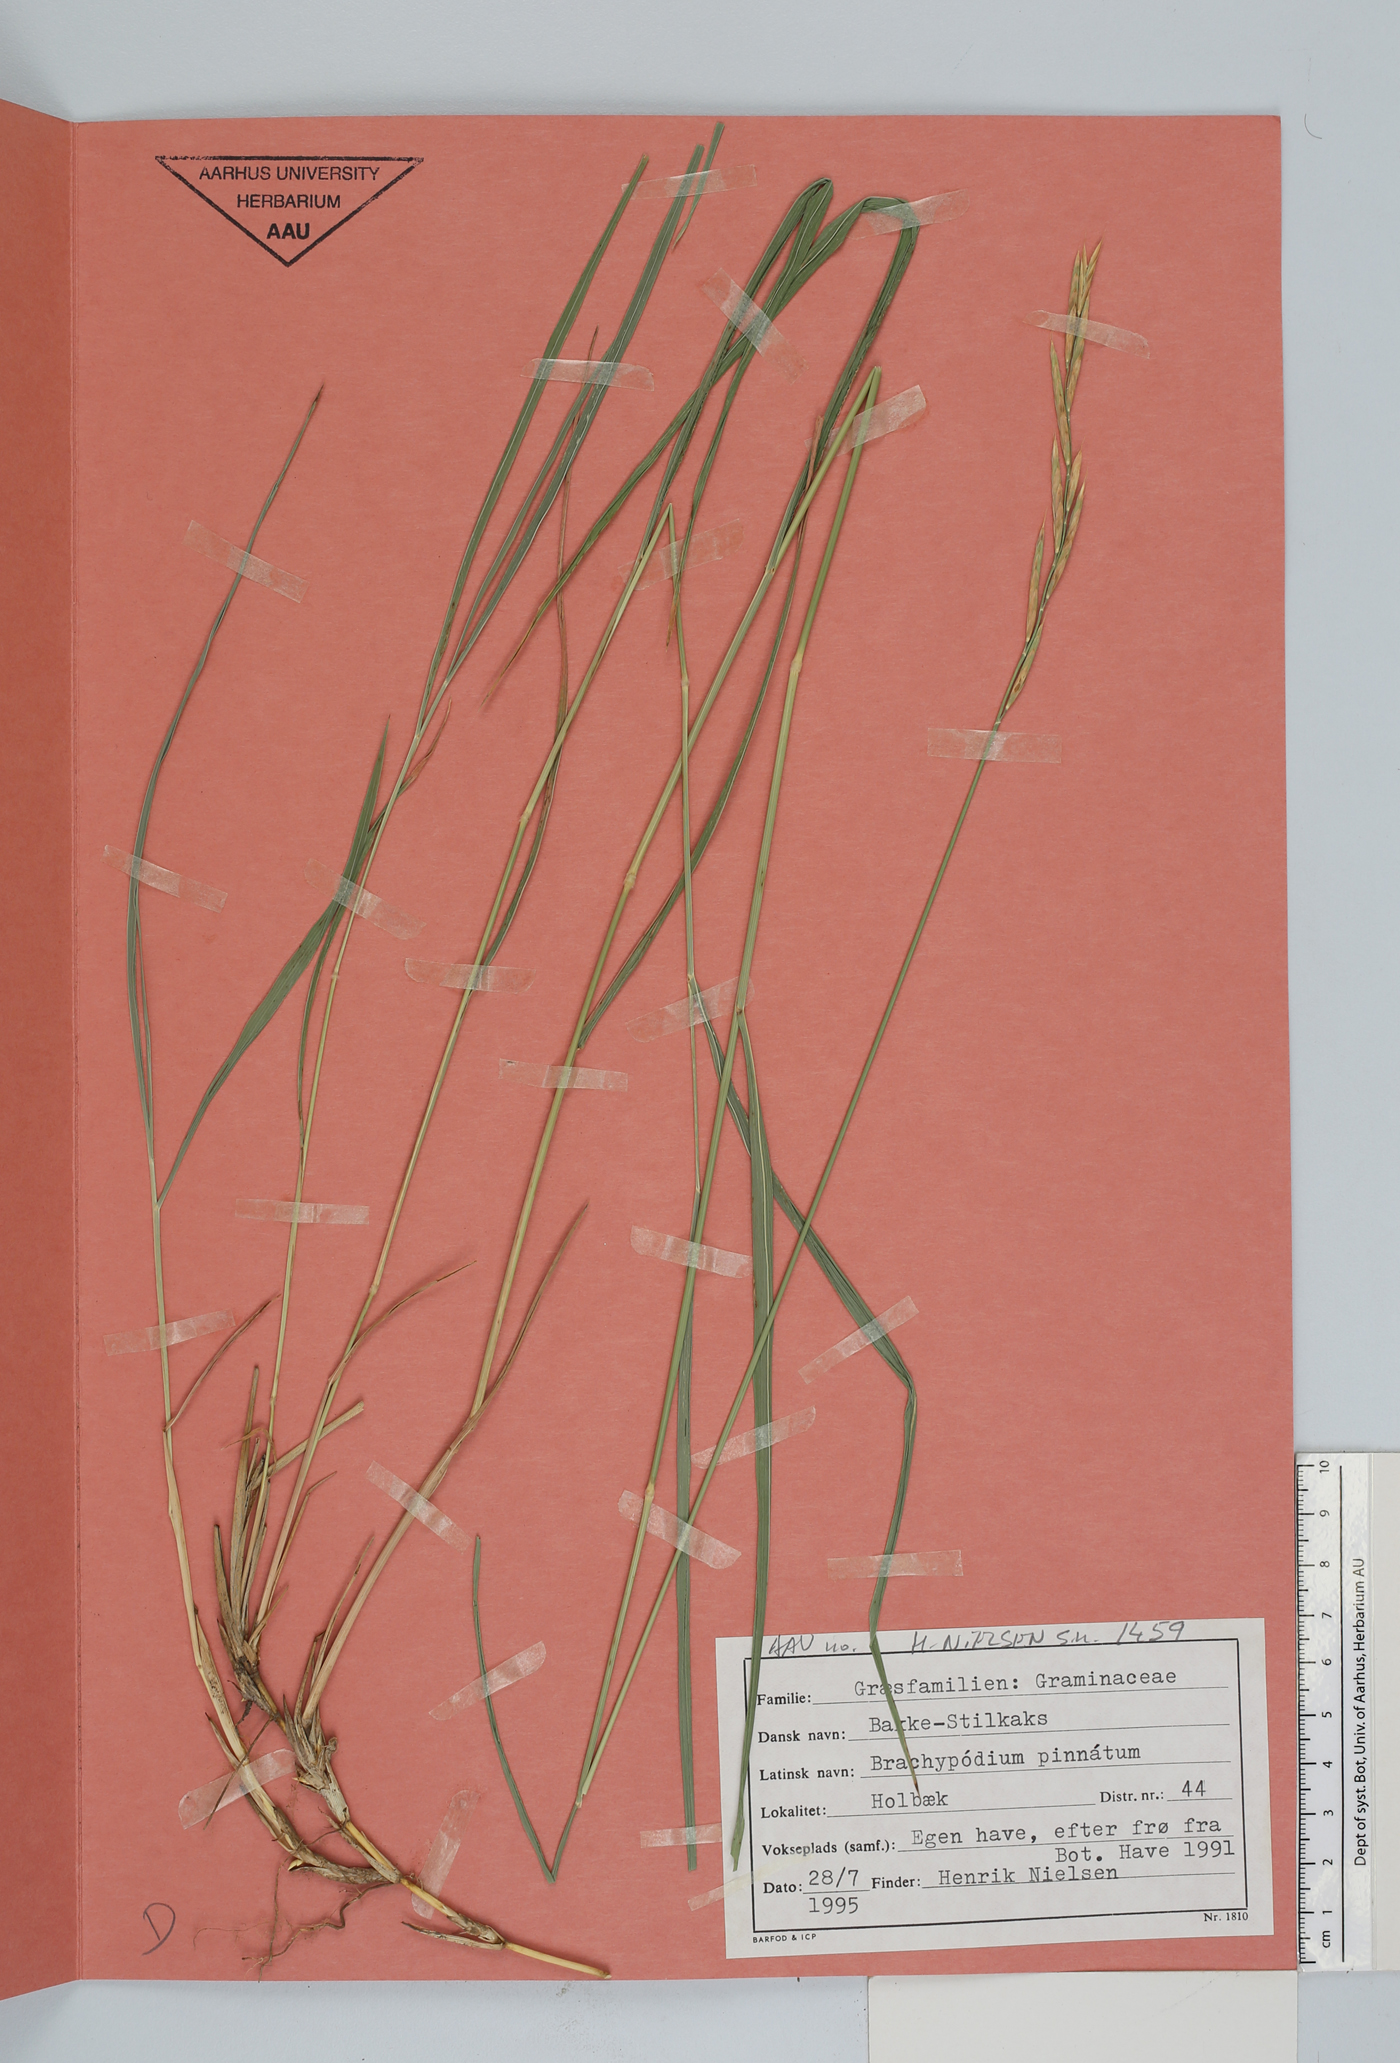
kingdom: Plantae
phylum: Tracheophyta
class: Liliopsida
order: Poales
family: Poaceae
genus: Brachypodium
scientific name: Brachypodium pinnatum
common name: Tor grass
